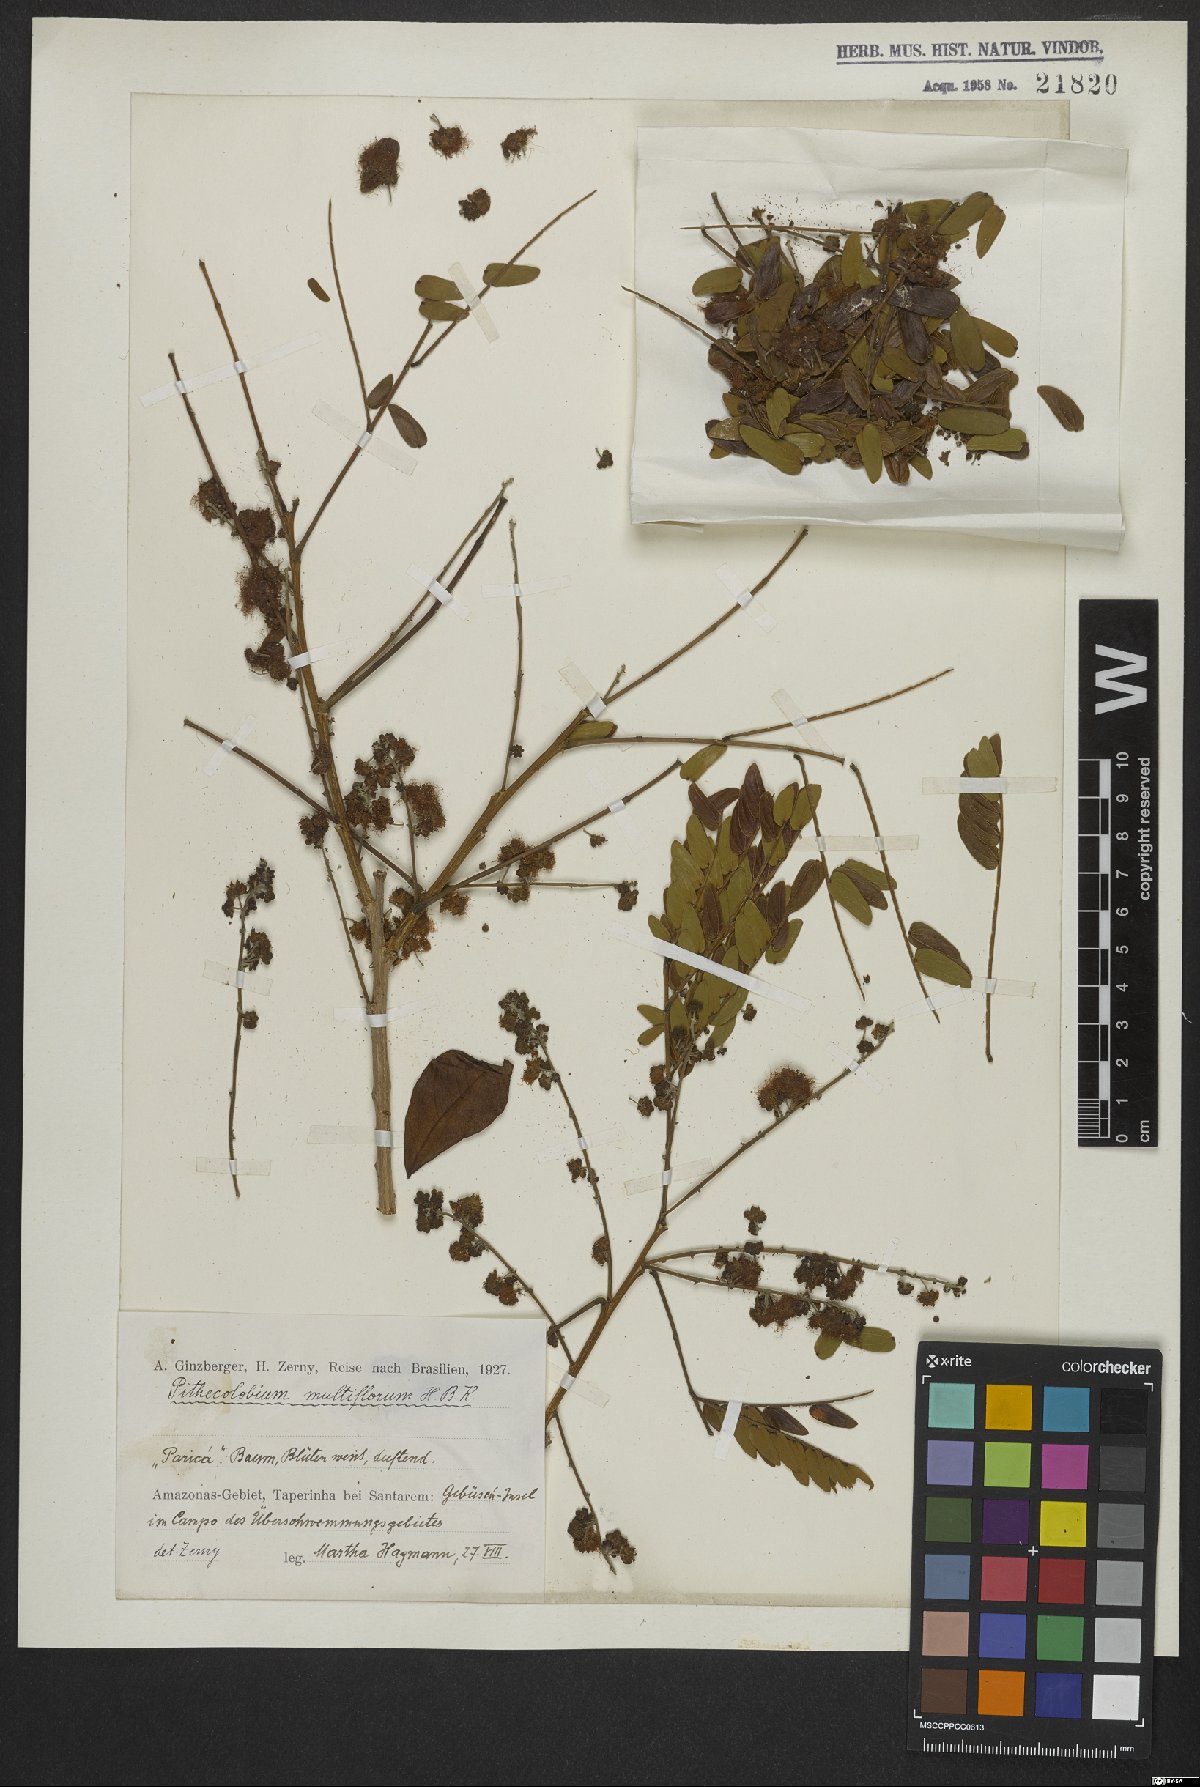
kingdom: Plantae
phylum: Tracheophyta
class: Magnoliopsida
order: Fabales
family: Fabaceae
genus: Albizia
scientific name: Albizia multiflora
